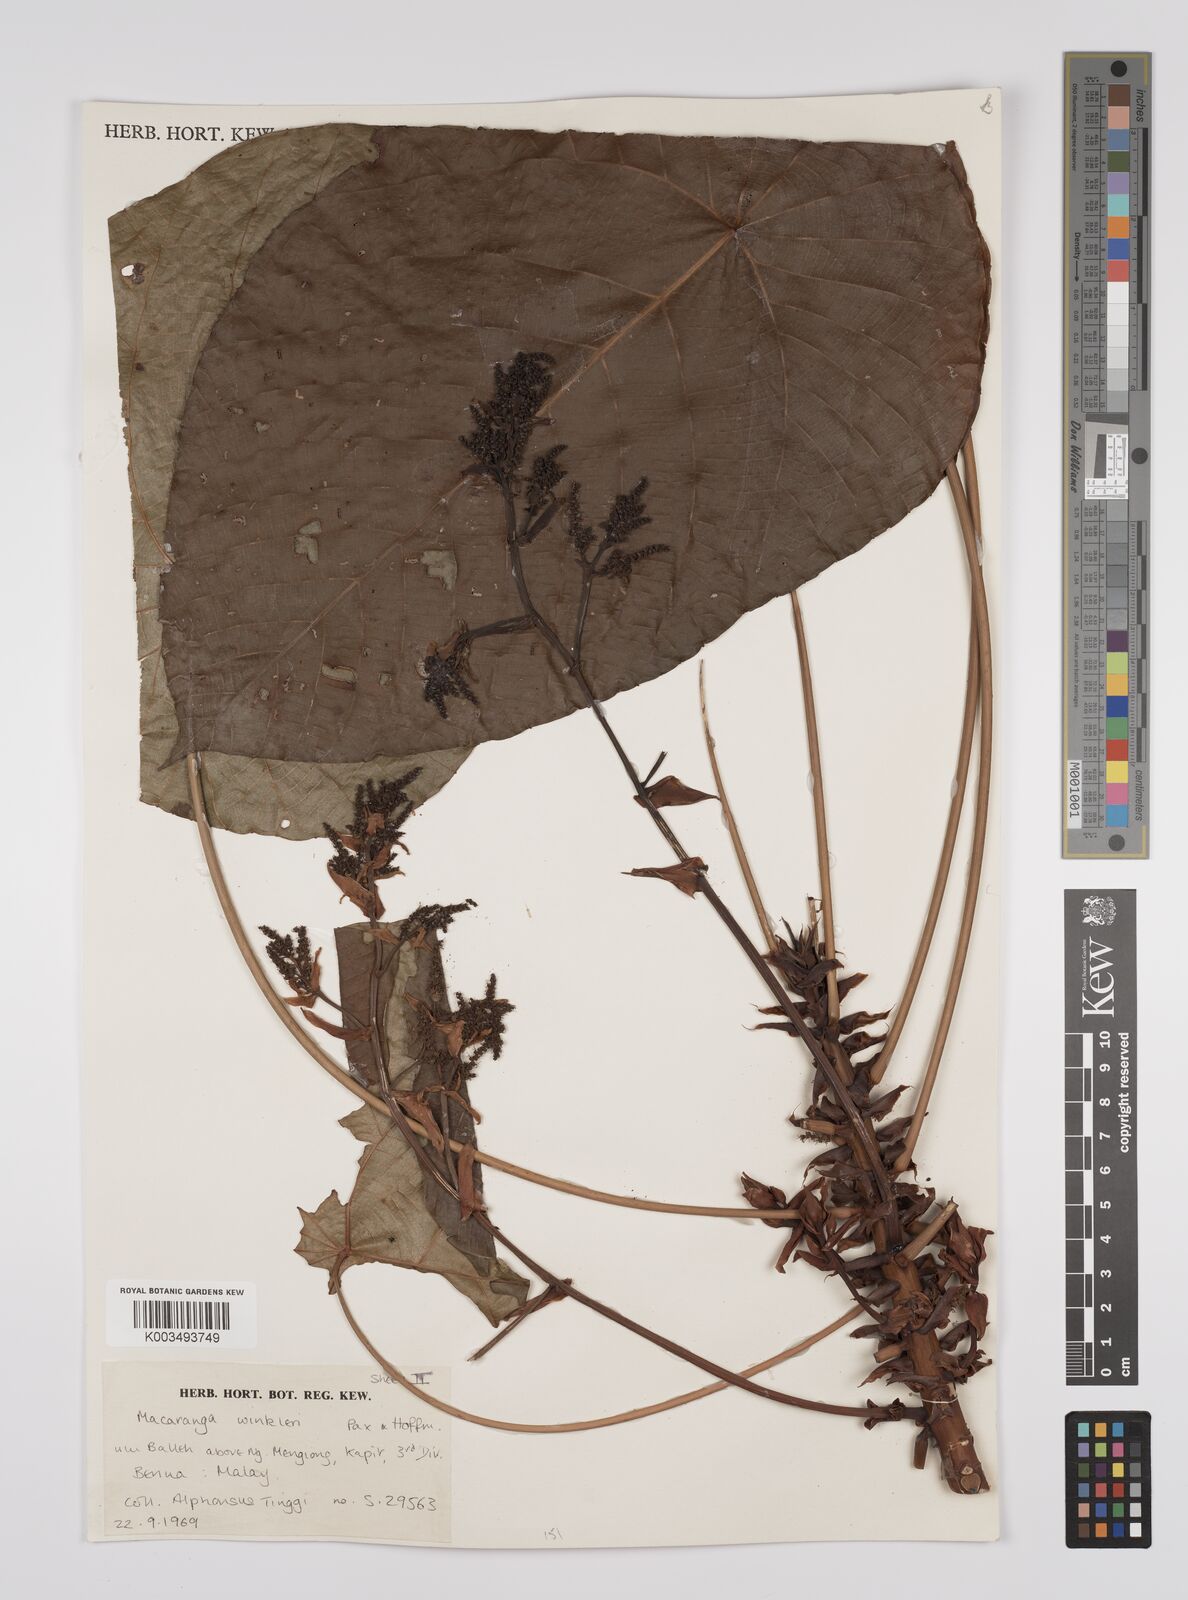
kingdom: Plantae
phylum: Tracheophyta
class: Magnoliopsida
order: Malpighiales
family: Euphorbiaceae
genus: Macaranga
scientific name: Macaranga winkleri
